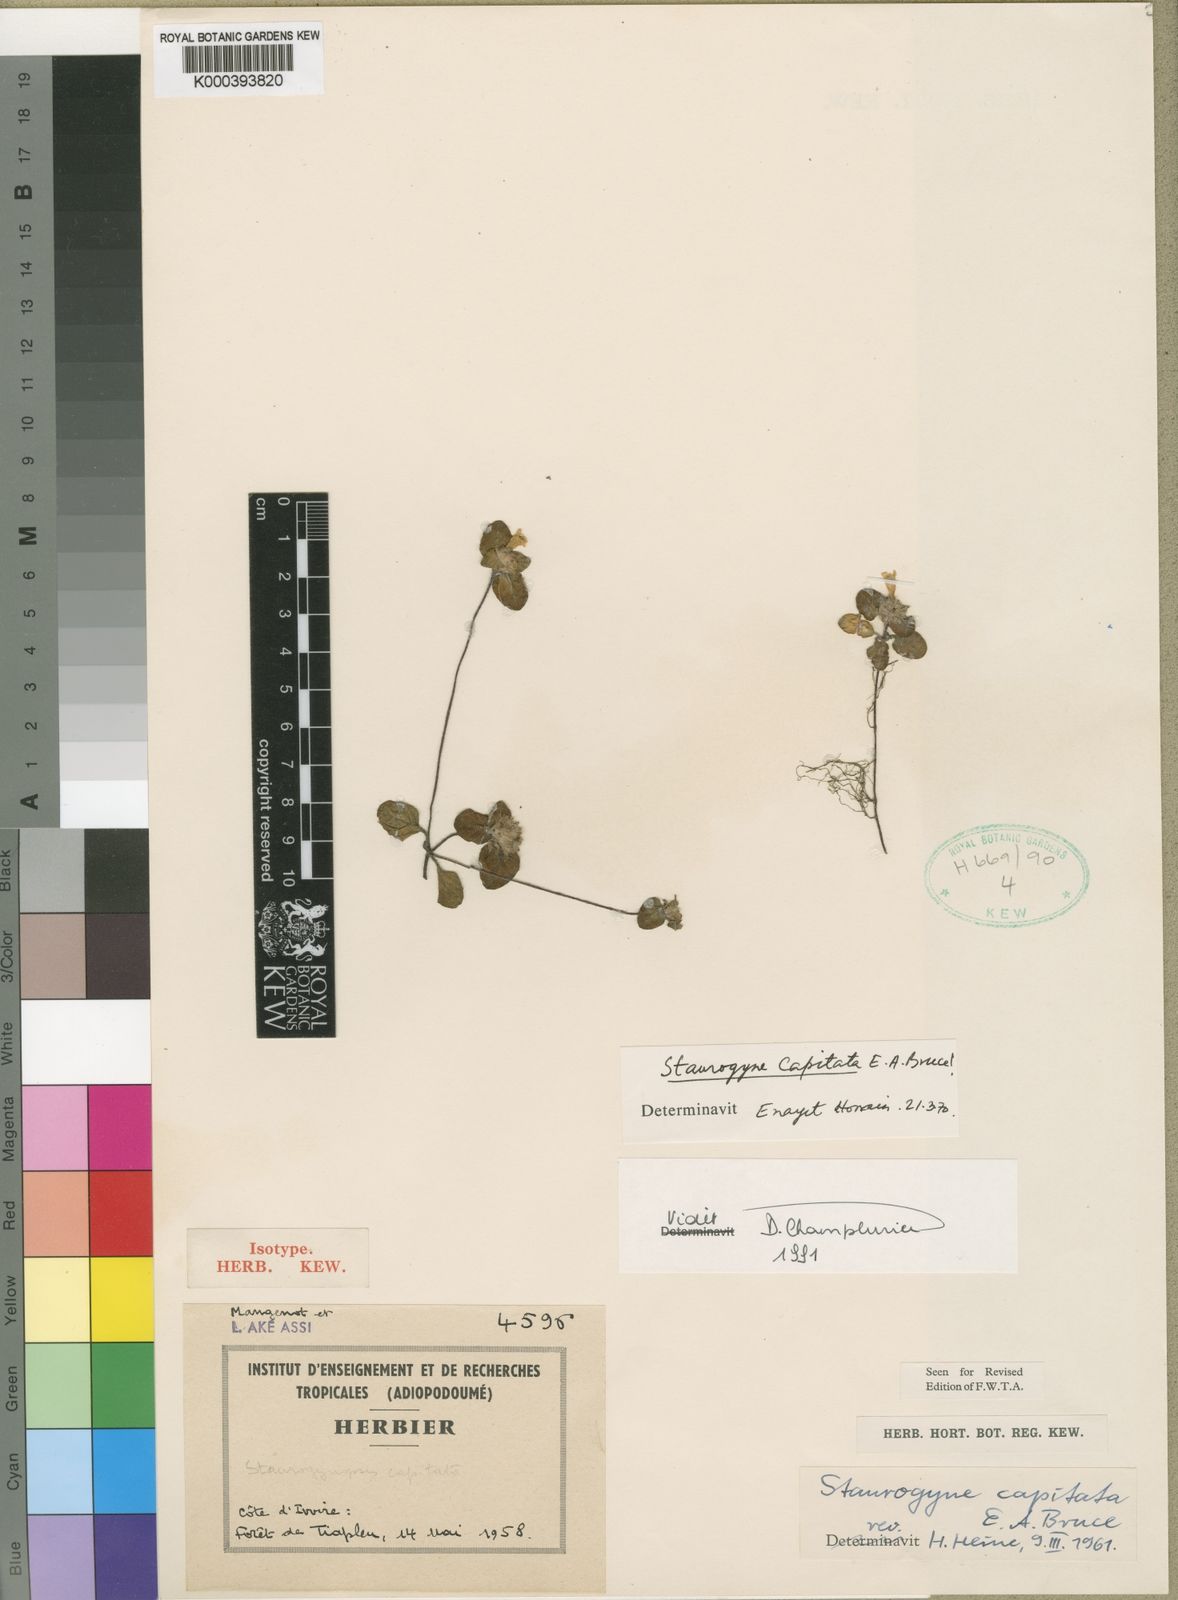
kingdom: Plantae
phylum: Tracheophyta
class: Magnoliopsida
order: Lamiales
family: Acanthaceae
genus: Staurogyne
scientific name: Staurogyne capitata
